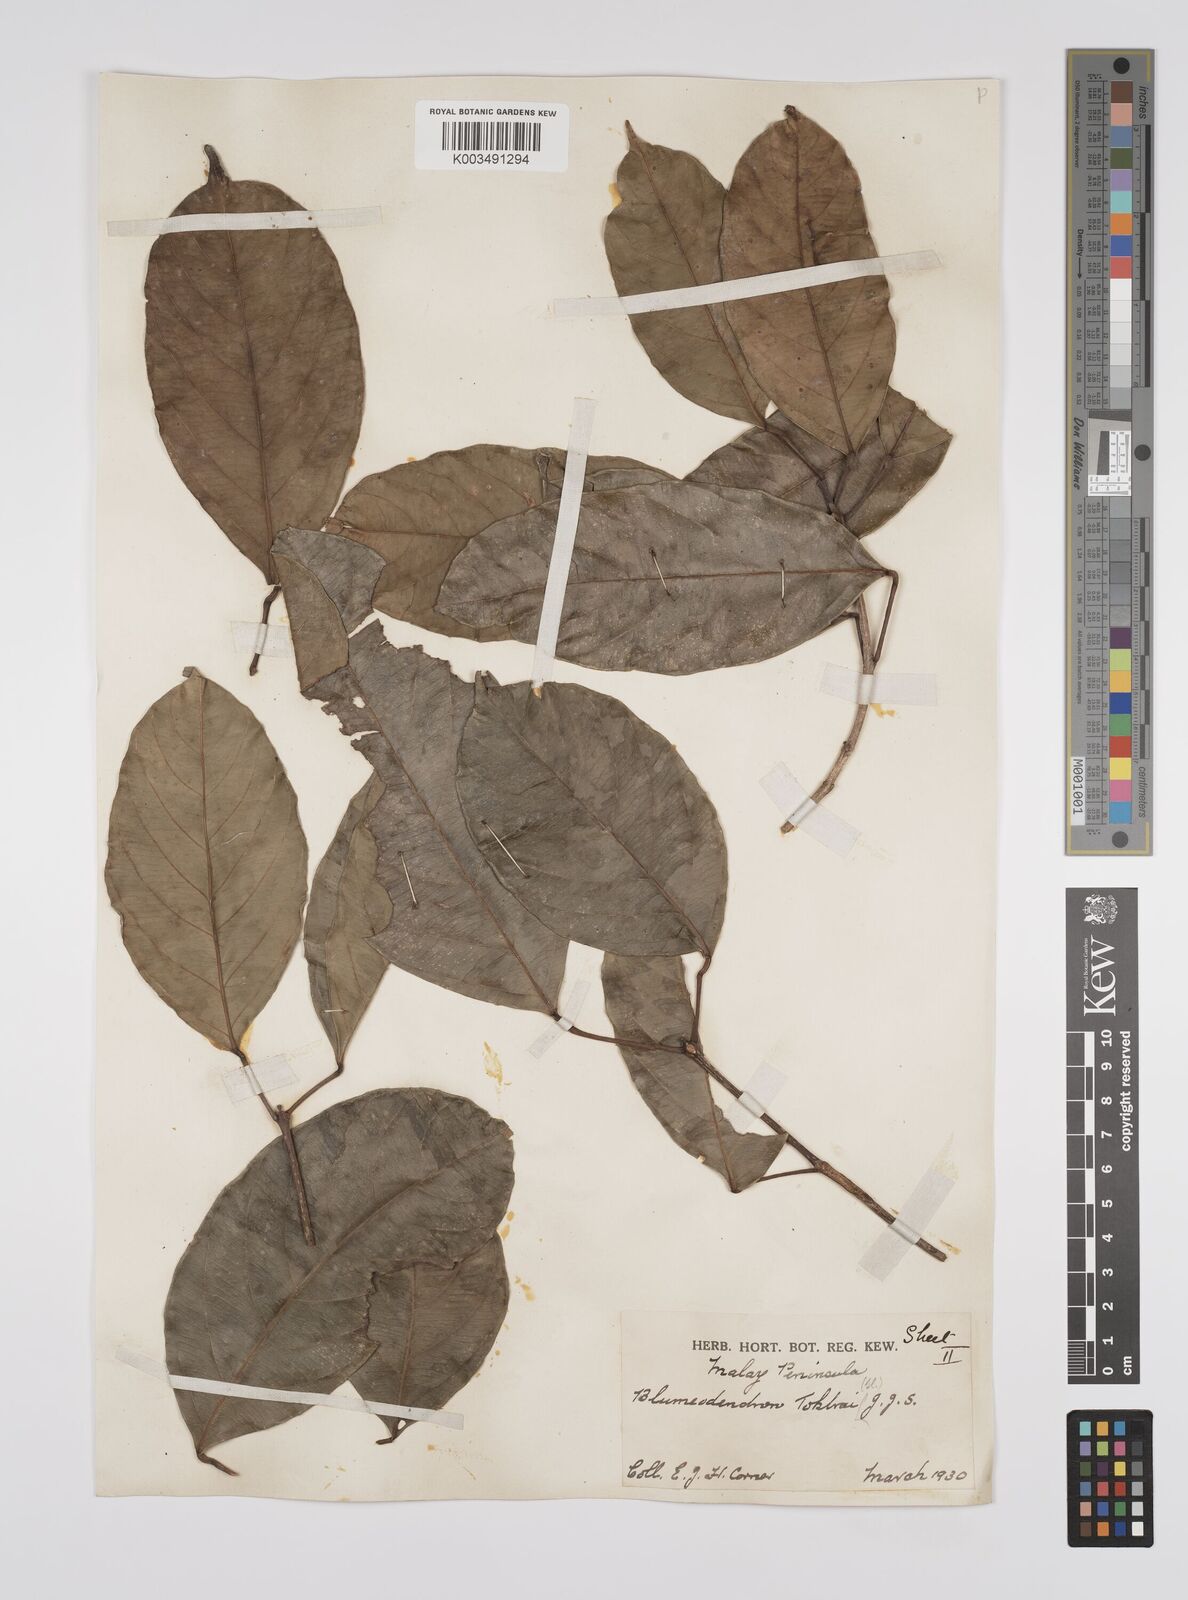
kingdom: Plantae
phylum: Tracheophyta
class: Magnoliopsida
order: Malpighiales
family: Euphorbiaceae
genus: Blumeodendron
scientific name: Blumeodendron tokbrai
